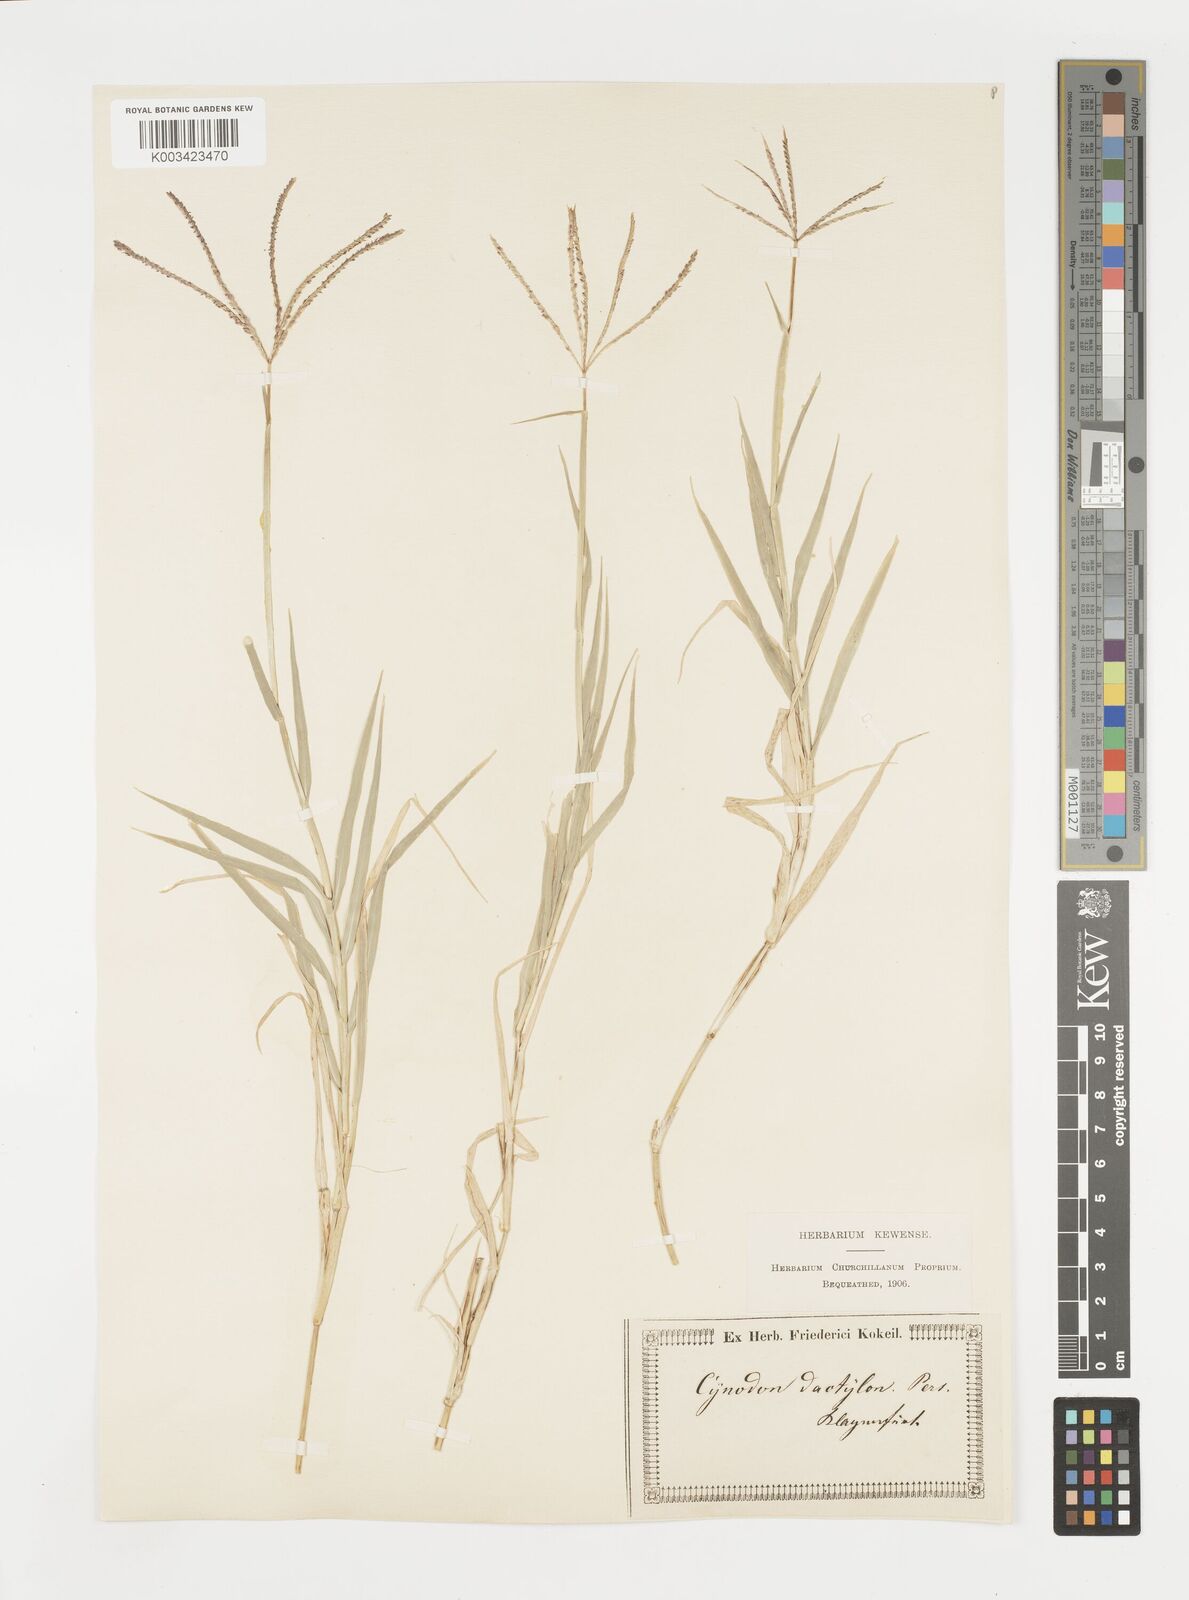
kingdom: Plantae
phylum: Tracheophyta
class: Liliopsida
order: Poales
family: Poaceae
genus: Cynodon
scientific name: Cynodon dactylon
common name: Bermuda grass
